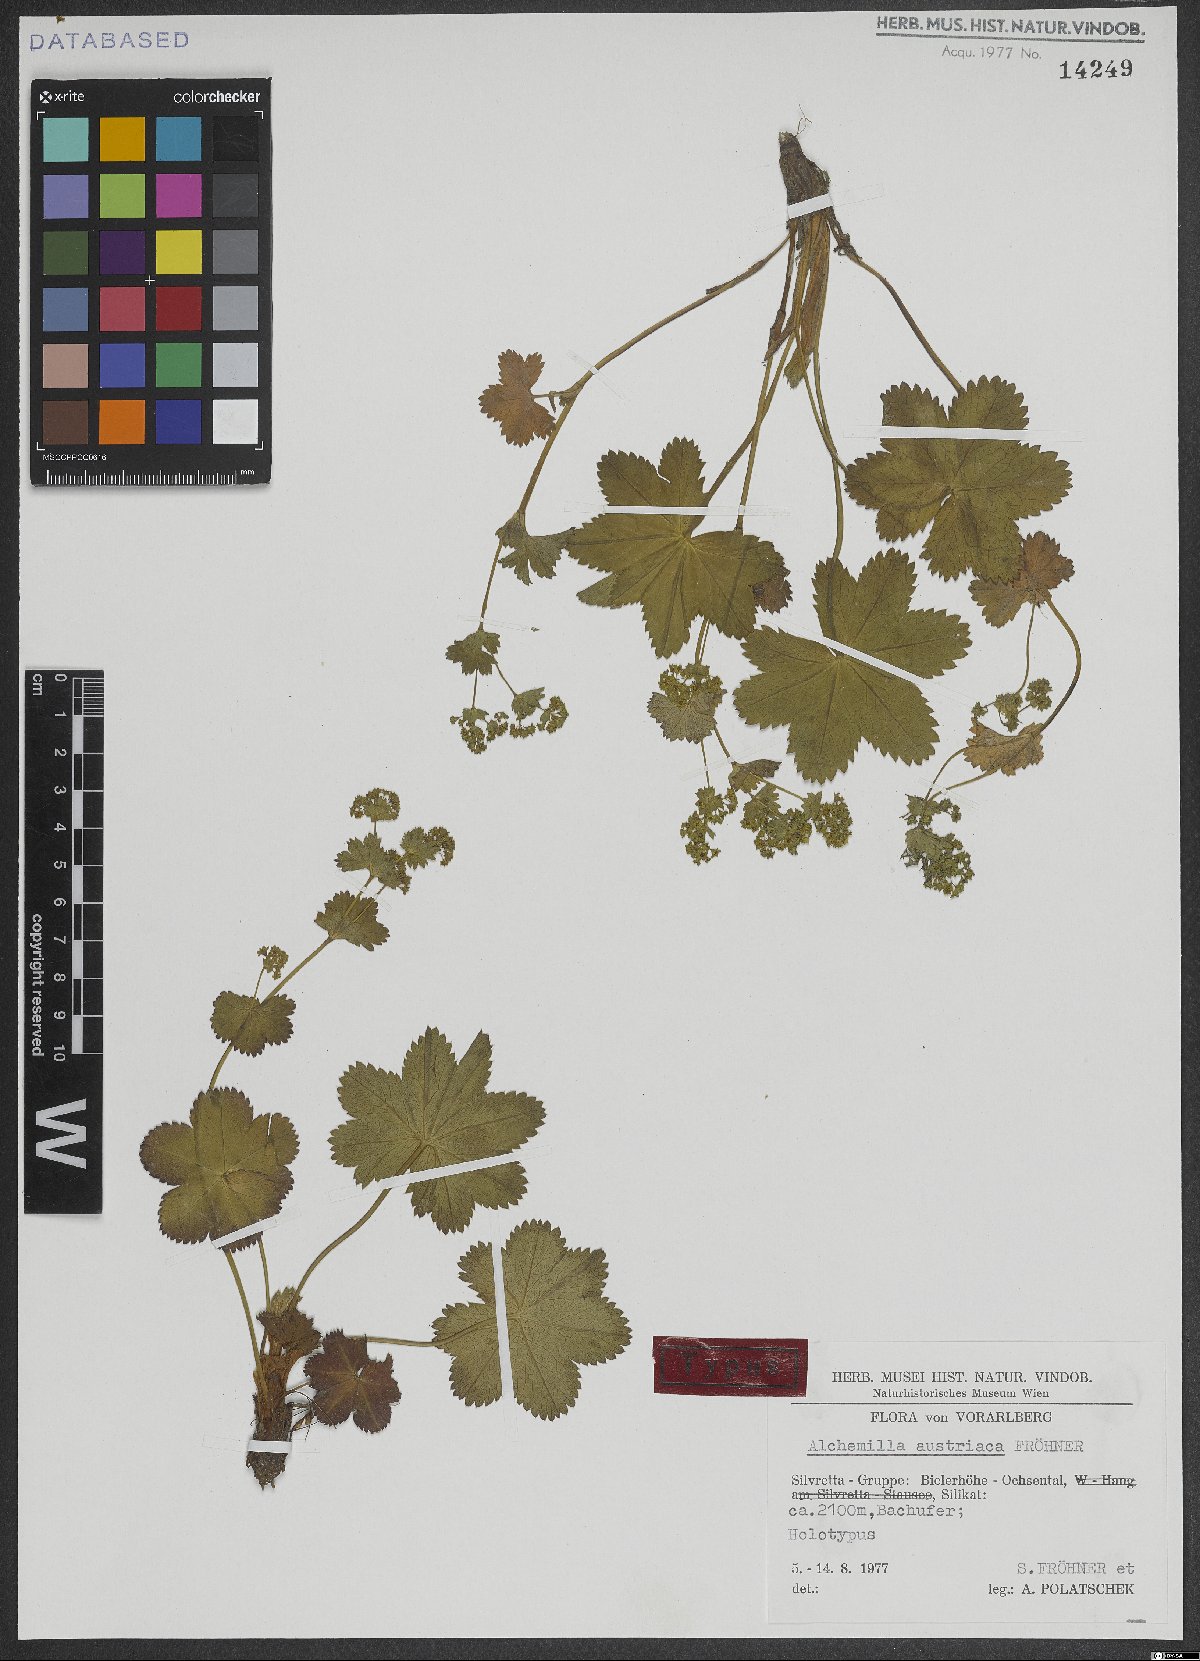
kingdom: Plantae
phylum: Tracheophyta
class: Magnoliopsida
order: Rosales
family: Rosaceae
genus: Alchemilla
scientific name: Alchemilla longana
